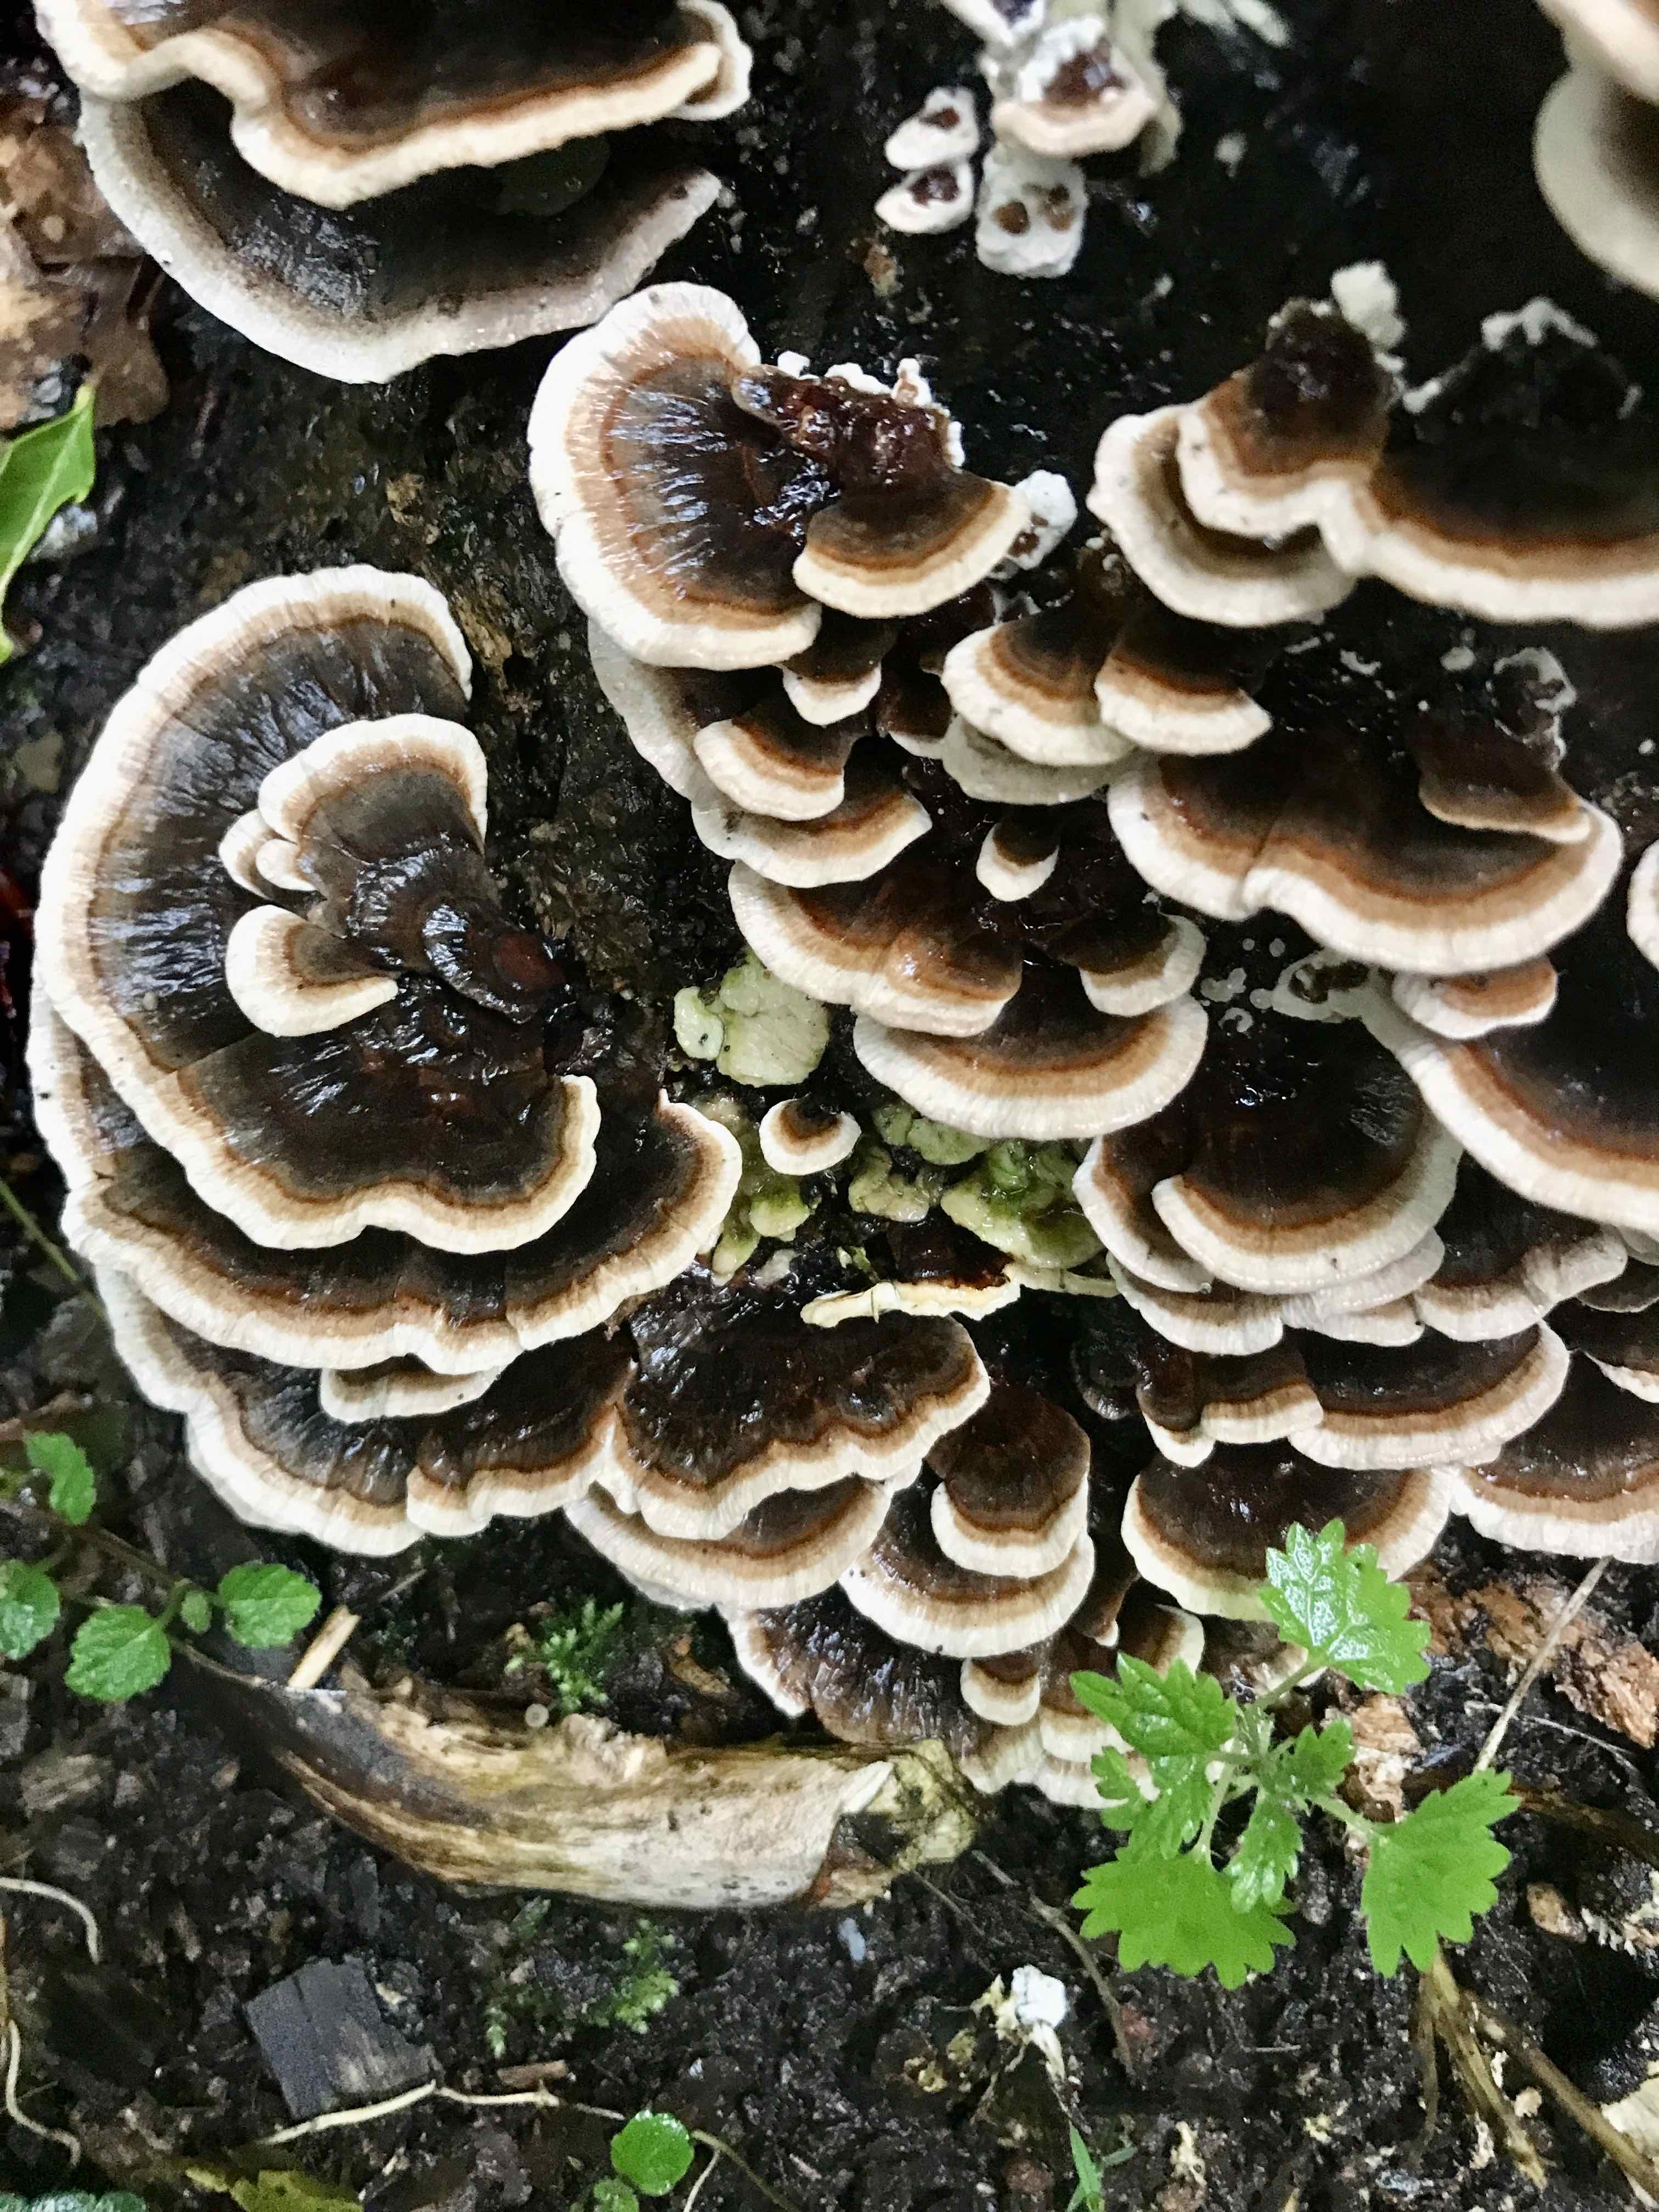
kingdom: Fungi
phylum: Basidiomycota
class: Agaricomycetes
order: Polyporales
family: Polyporaceae
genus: Trametes
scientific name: Trametes versicolor
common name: broget læderporesvamp
